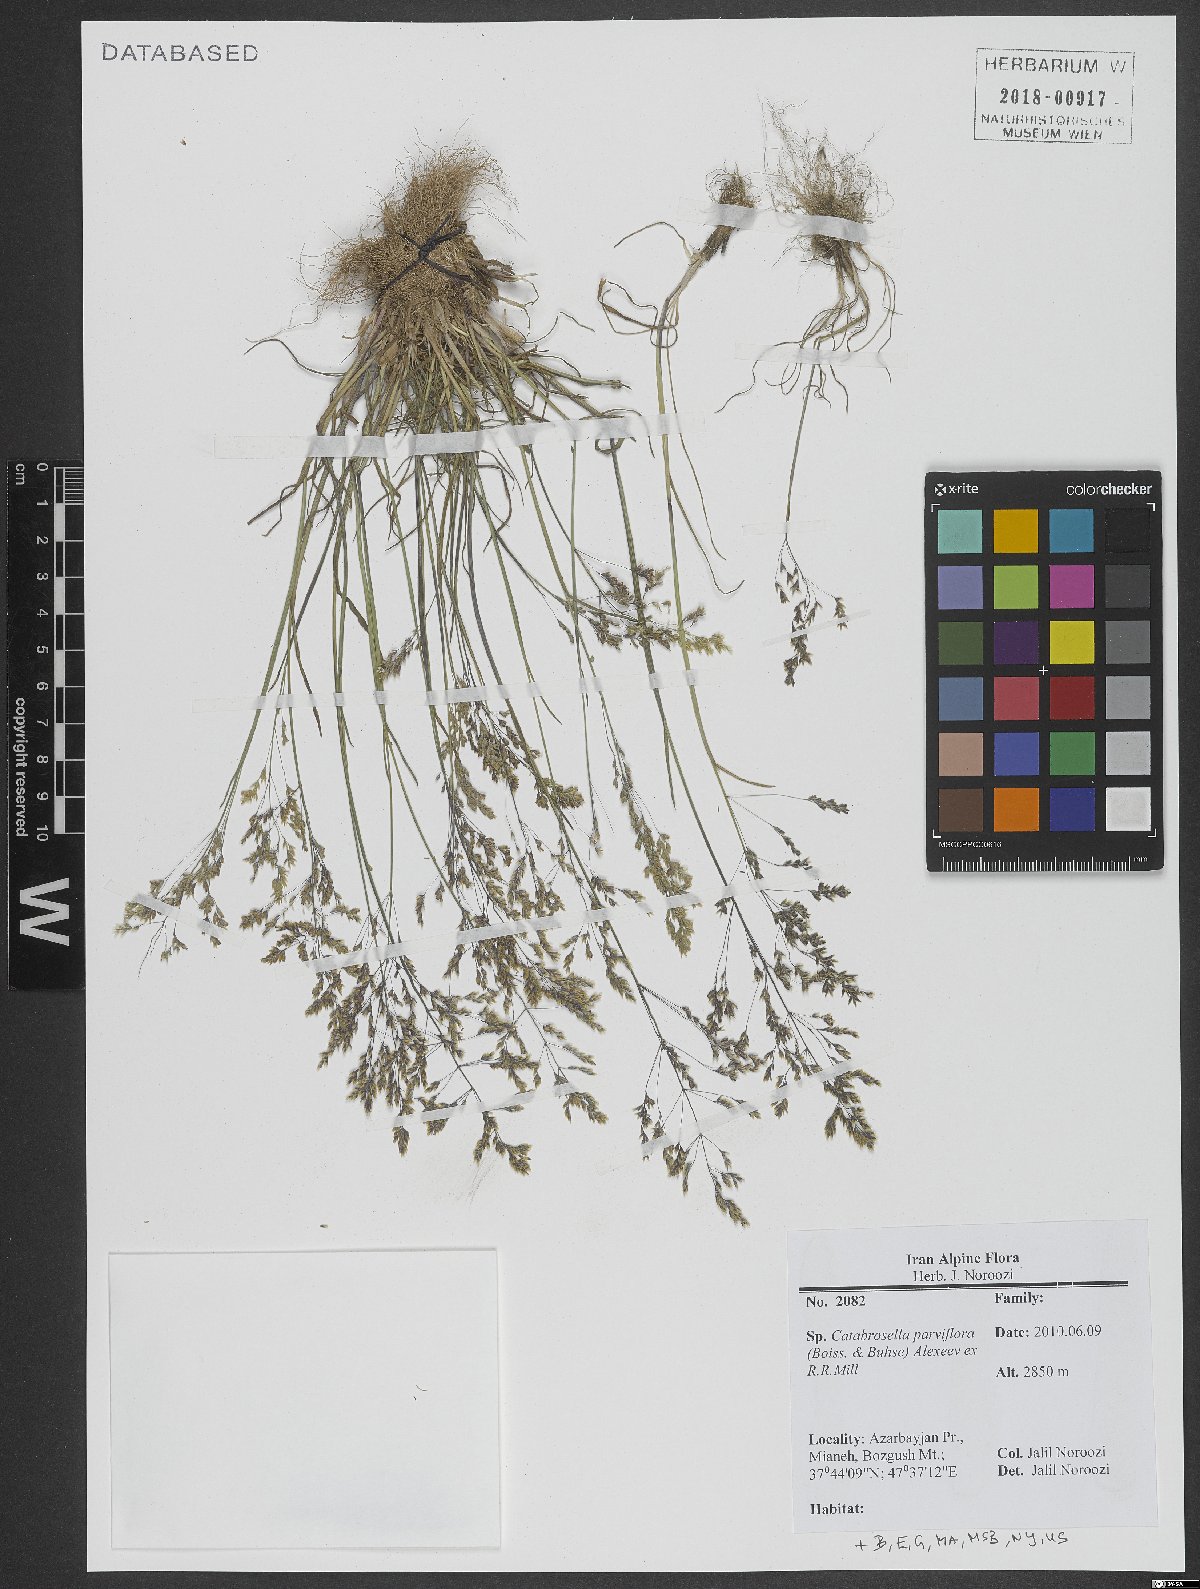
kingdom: Plantae
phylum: Tracheophyta
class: Liliopsida
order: Poales
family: Poaceae
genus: Catabrosella
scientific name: Catabrosella parviflora
